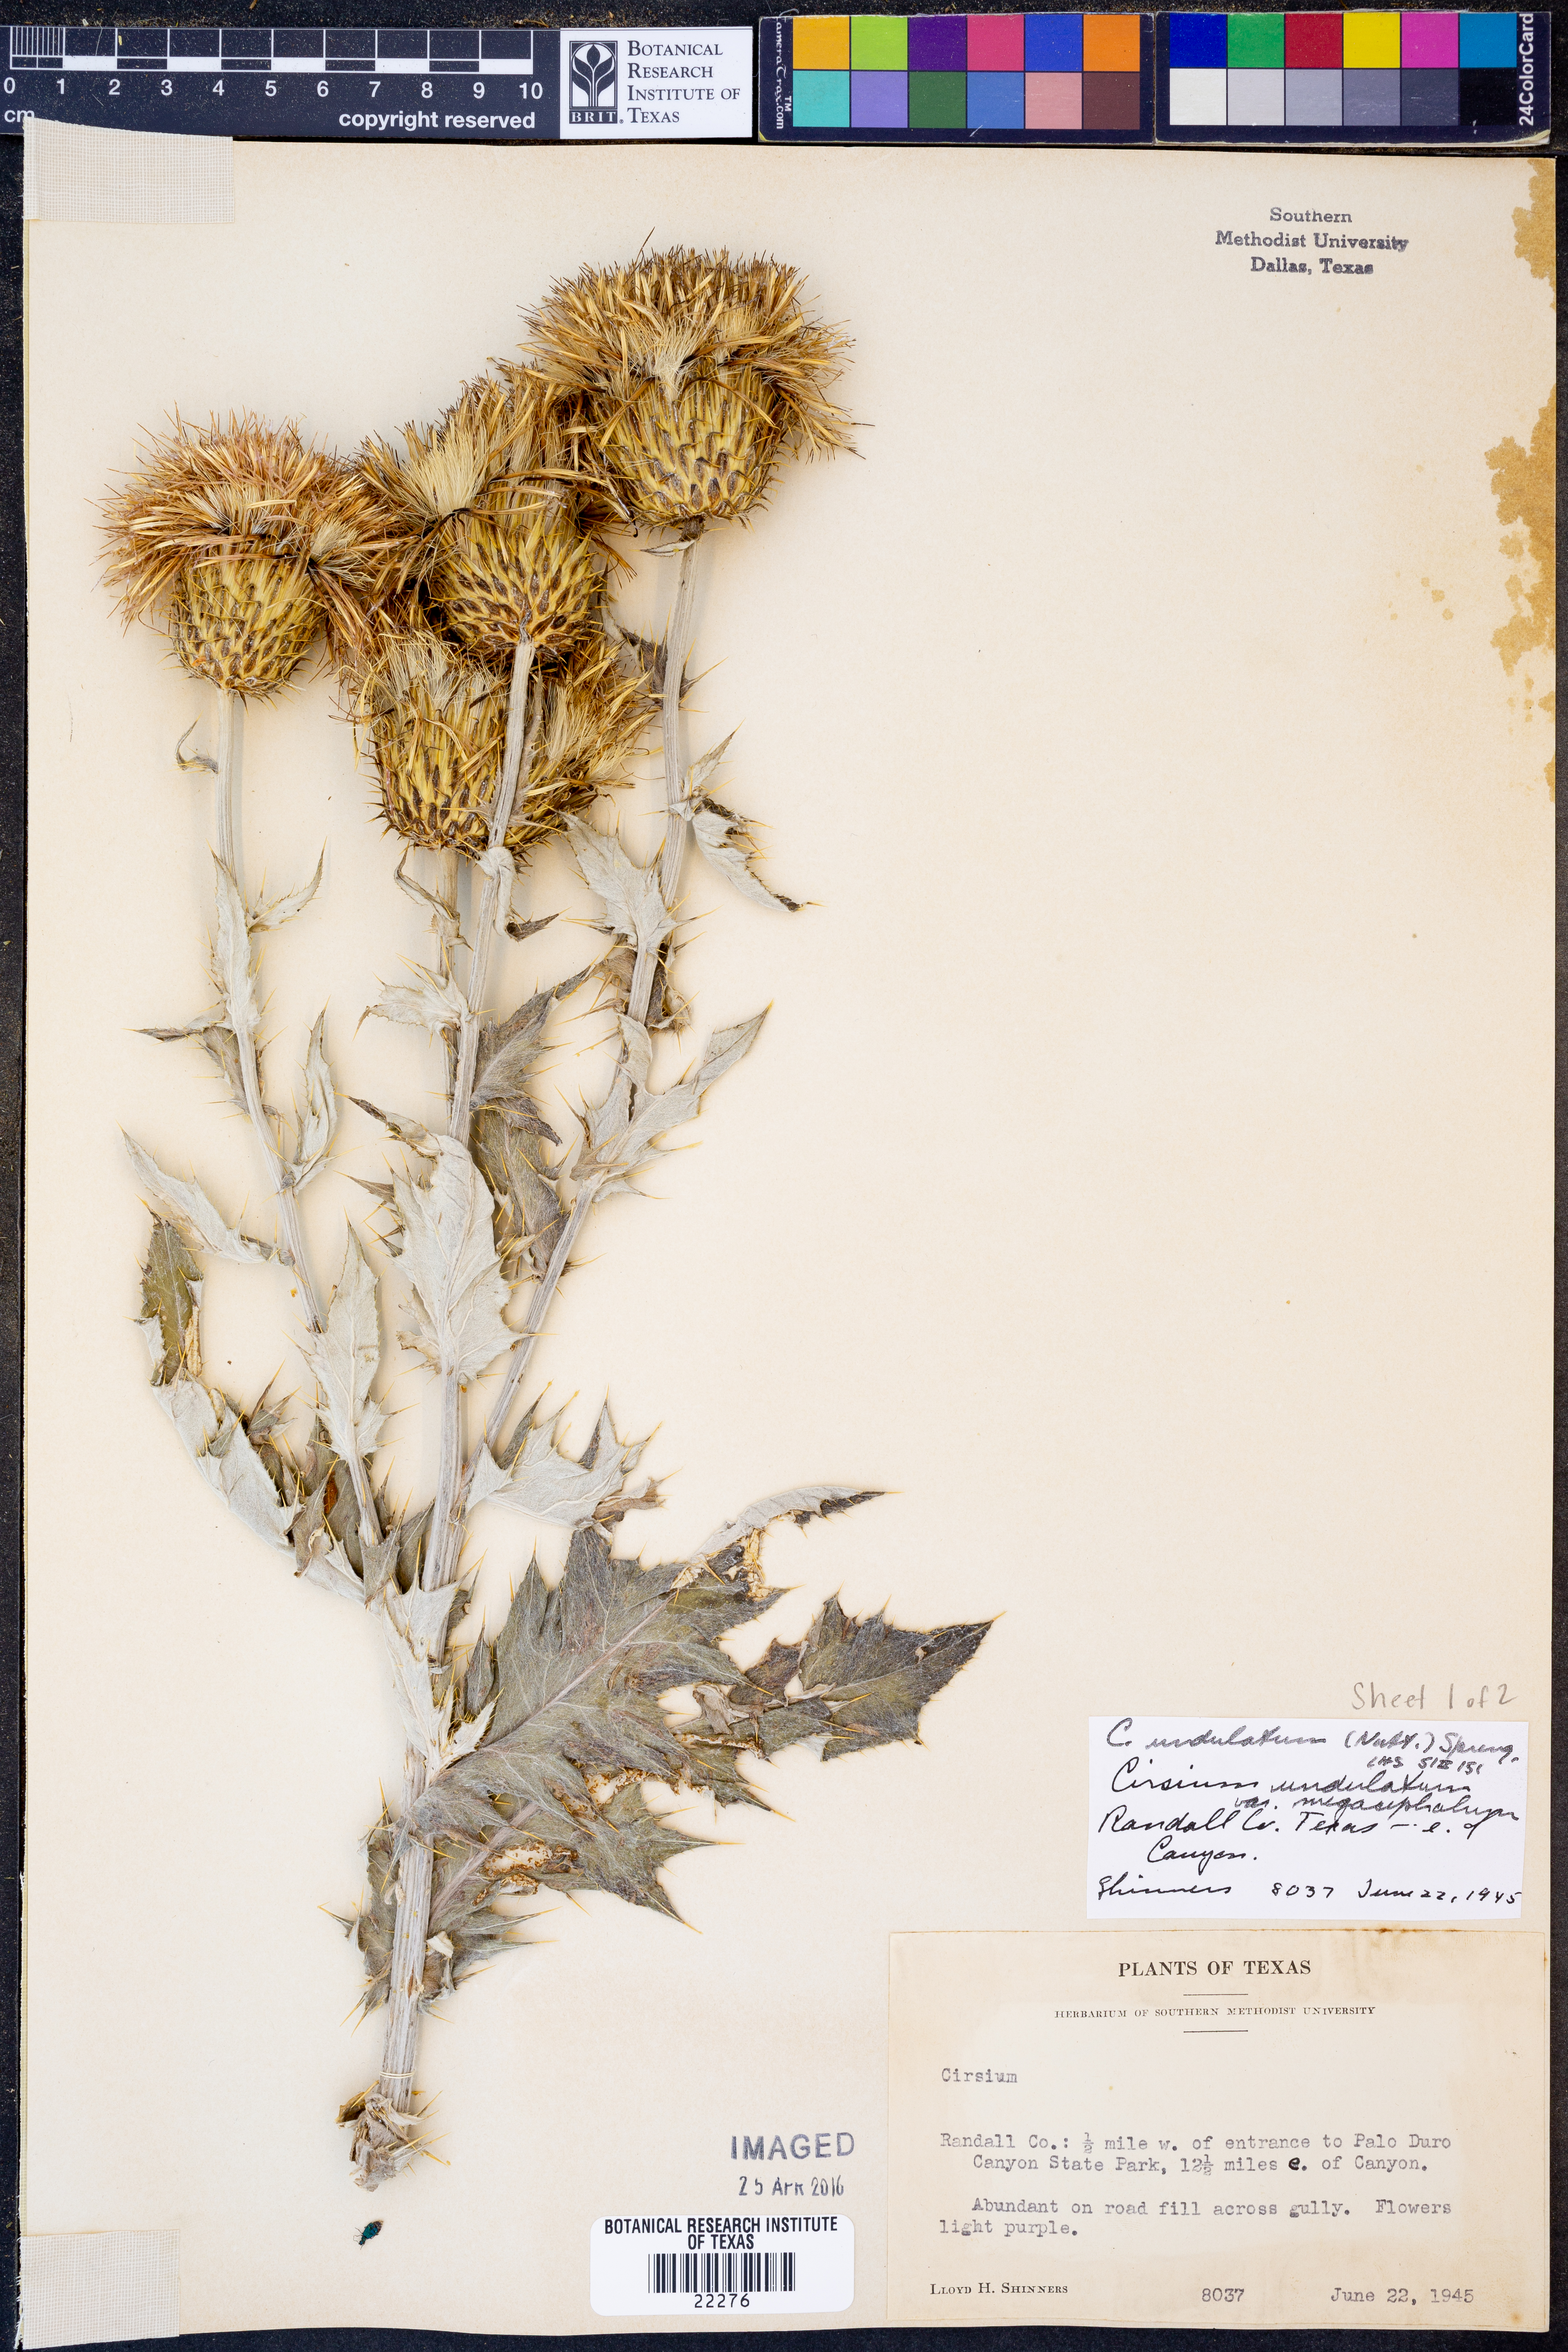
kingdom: Plantae
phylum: Tracheophyta
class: Magnoliopsida
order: Asterales
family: Asteraceae
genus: Cirsium
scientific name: Cirsium undulatum
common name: Pasture thistle
